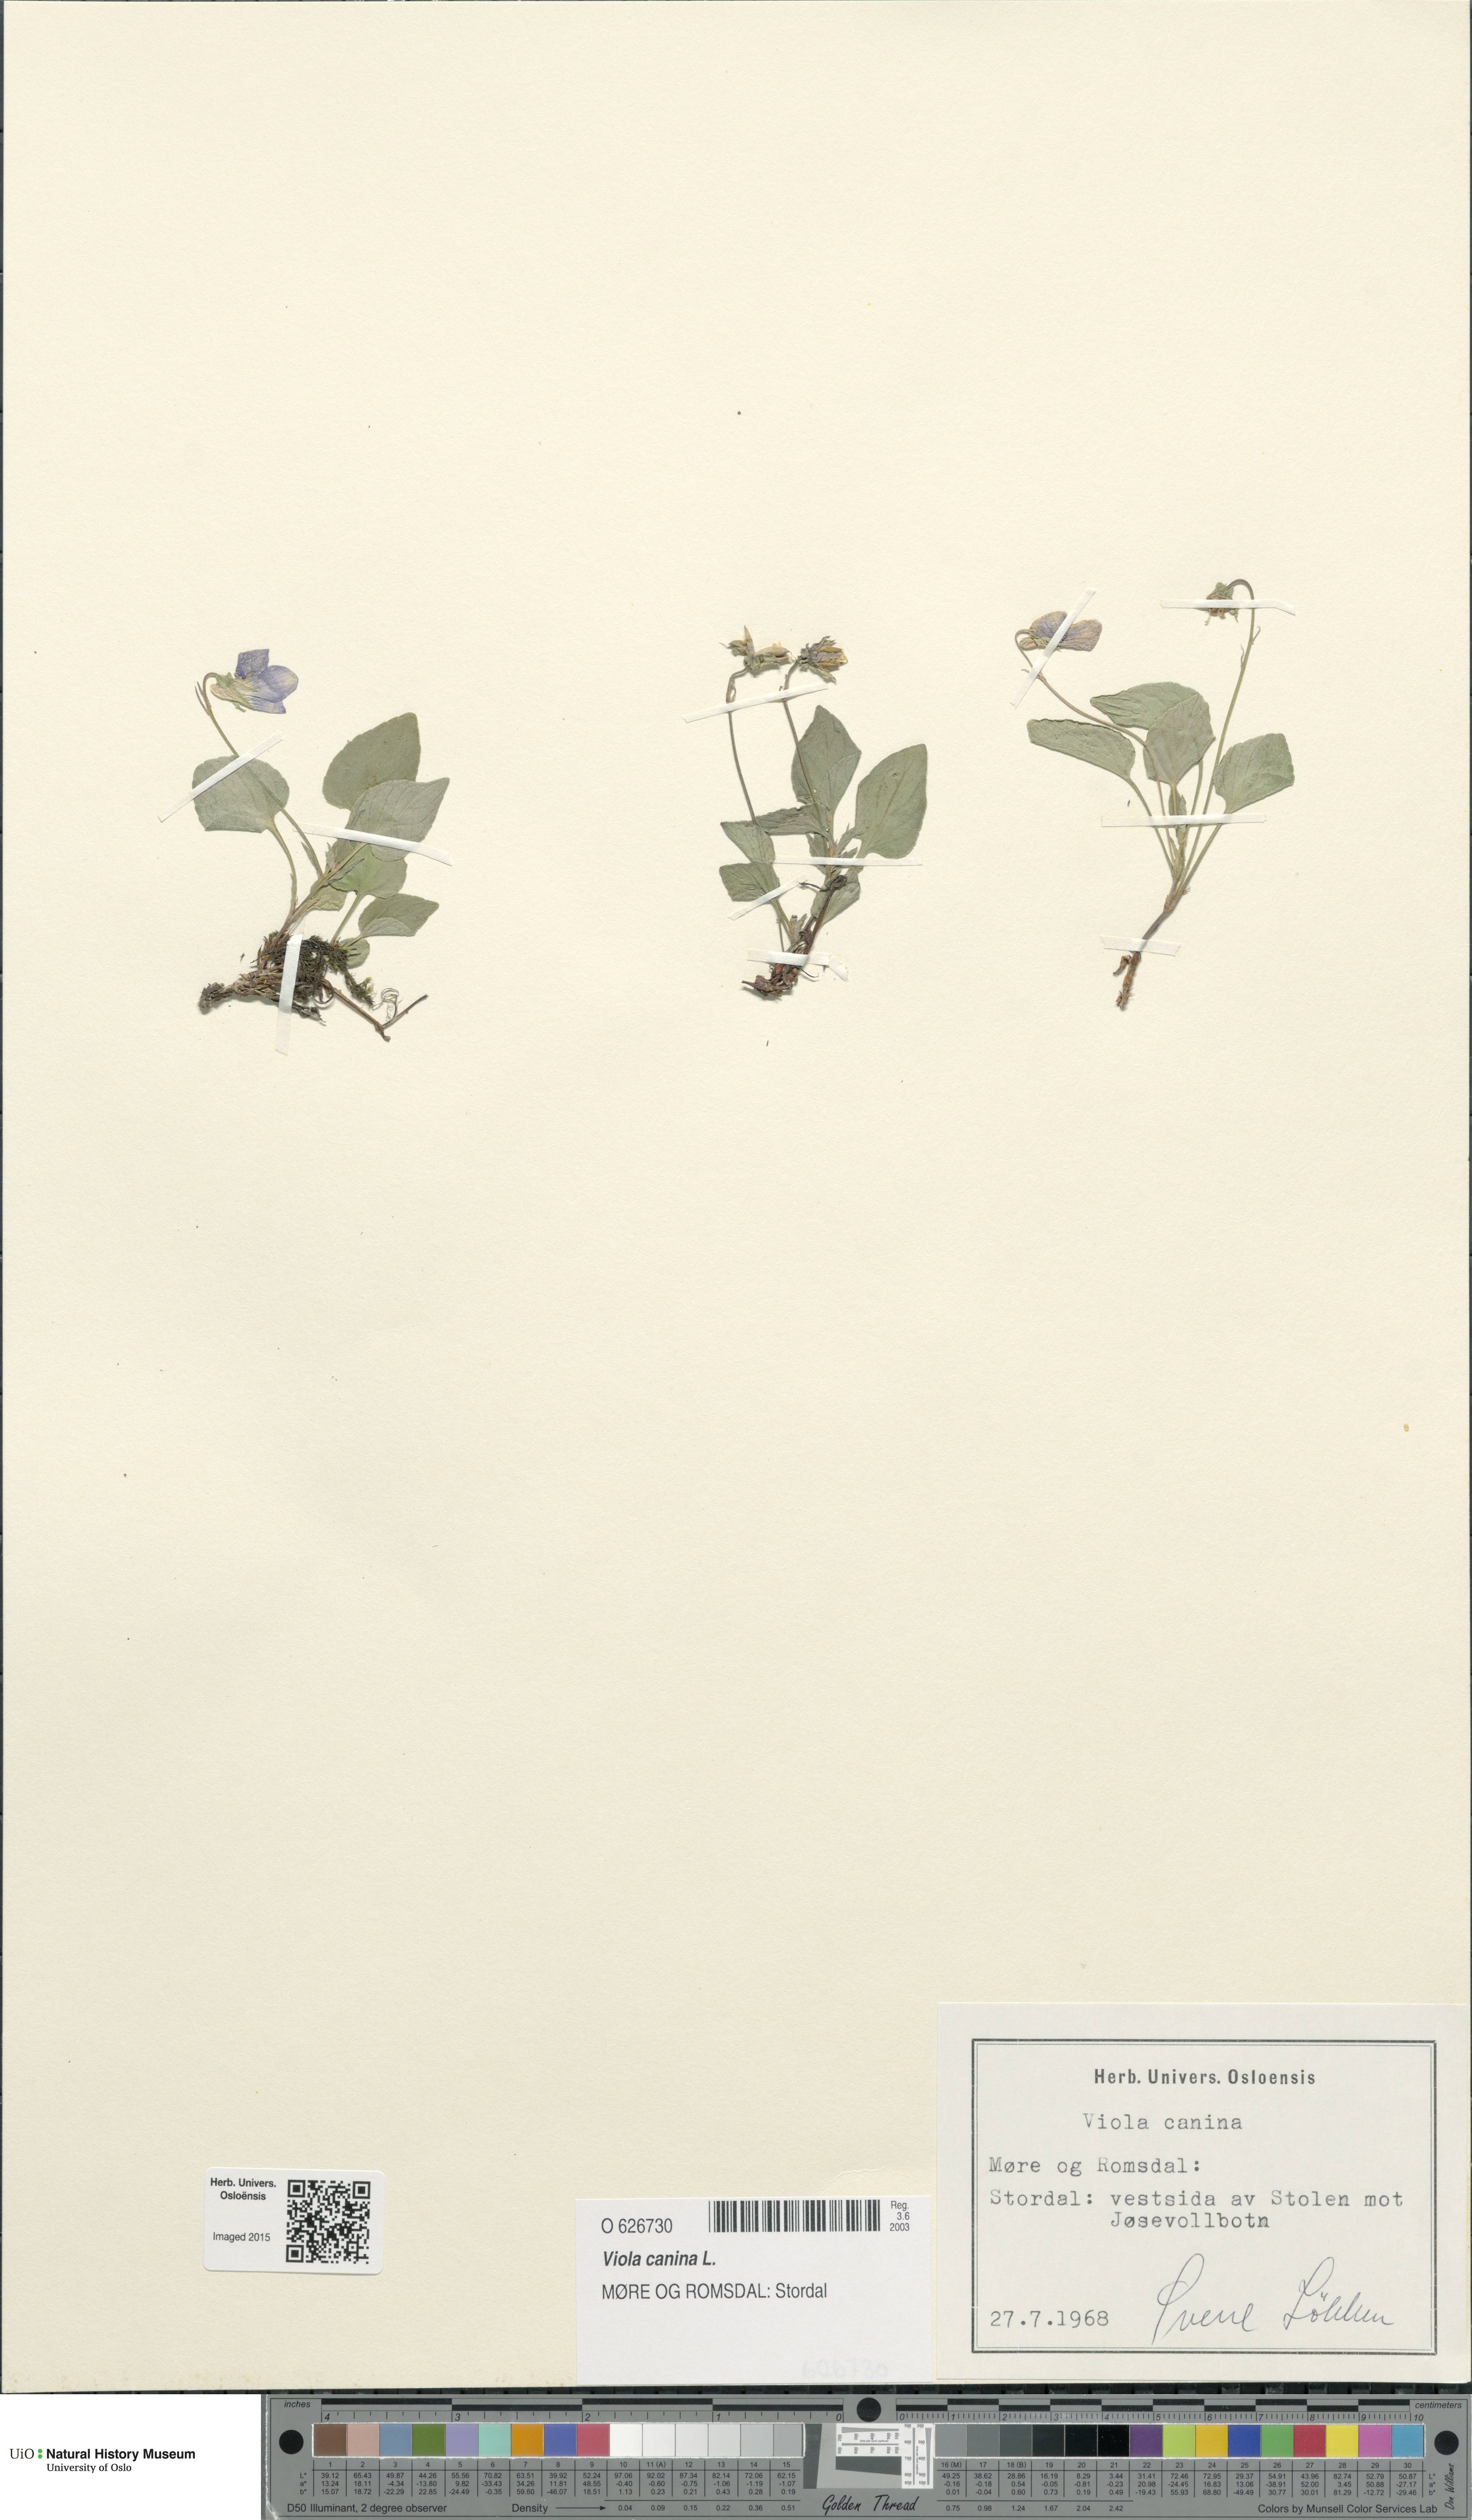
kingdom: Plantae
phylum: Tracheophyta
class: Magnoliopsida
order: Malpighiales
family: Violaceae
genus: Viola
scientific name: Viola canina
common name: Heath dog-violet
